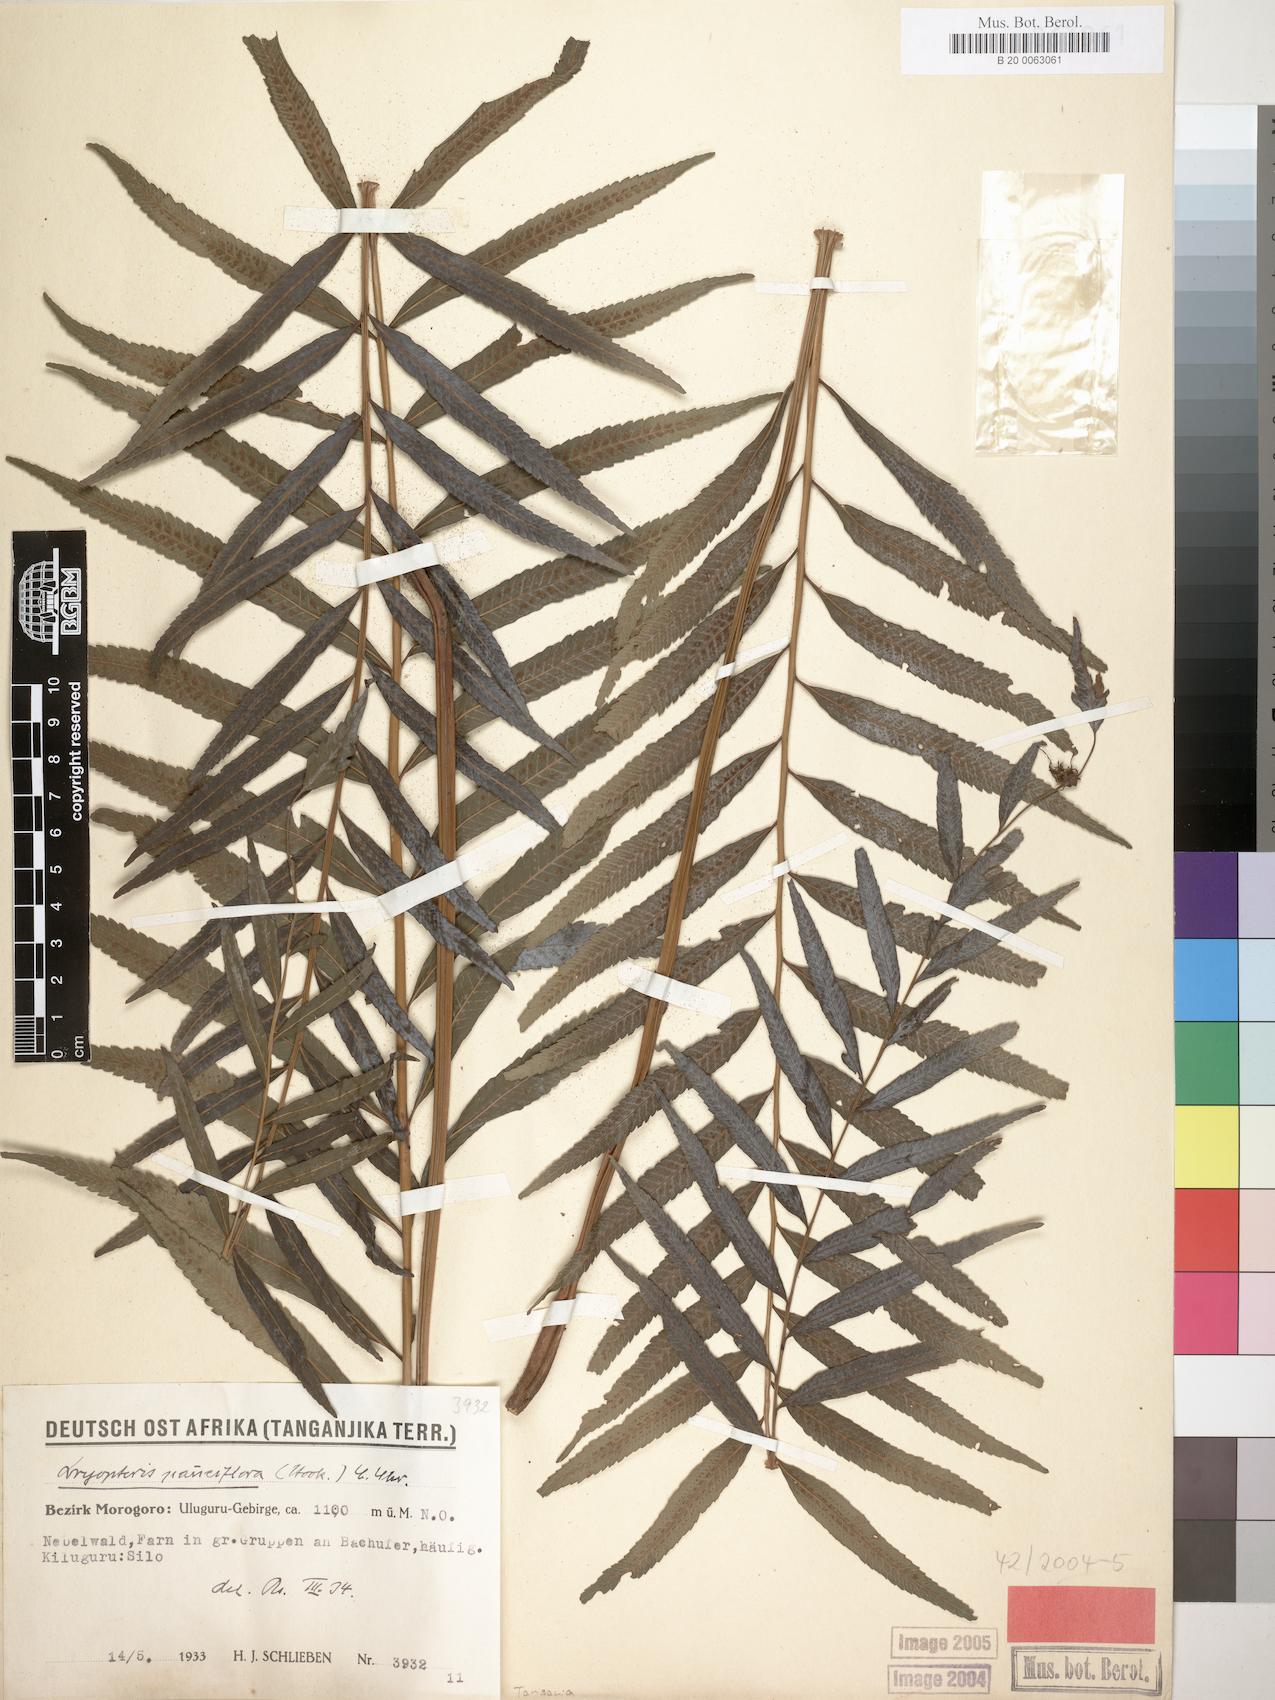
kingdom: Plantae
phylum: Tracheophyta
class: Polypodiopsida
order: Polypodiales
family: Thelypteridaceae
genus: Menisorus
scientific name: Menisorus pauciflorus
